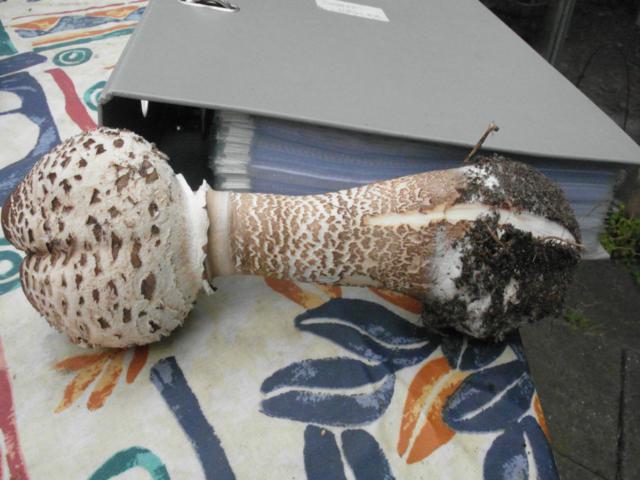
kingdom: Fungi
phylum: Basidiomycota
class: Agaricomycetes
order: Agaricales
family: Agaricaceae
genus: Macrolepiota
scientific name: Macrolepiota procera
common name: stor kæmpeparasolhat
